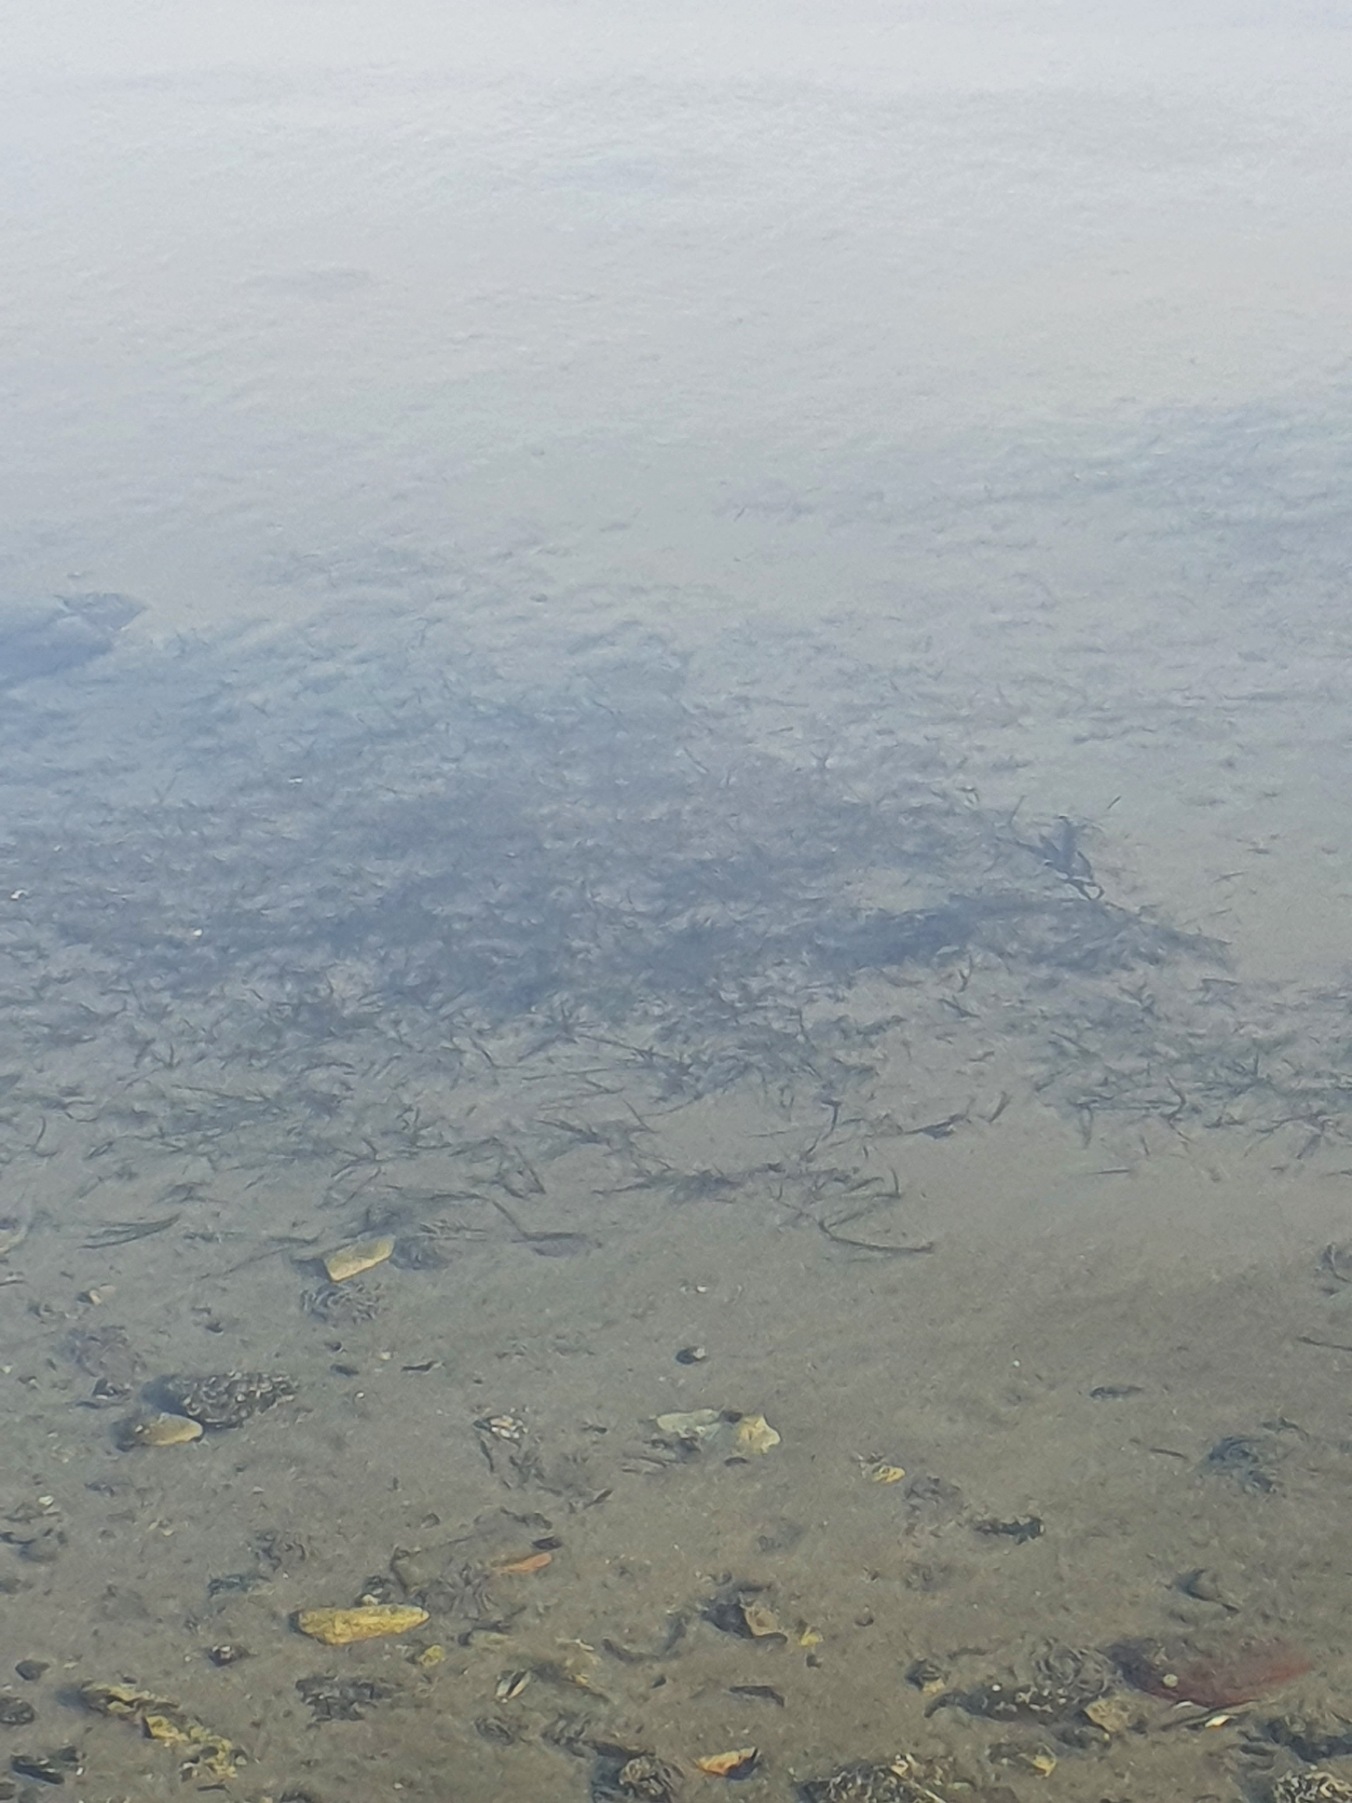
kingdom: Plantae
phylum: Tracheophyta
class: Liliopsida
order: Alismatales
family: Zosteraceae
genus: Zostera
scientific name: Zostera marina
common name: Almindelig bændeltang
